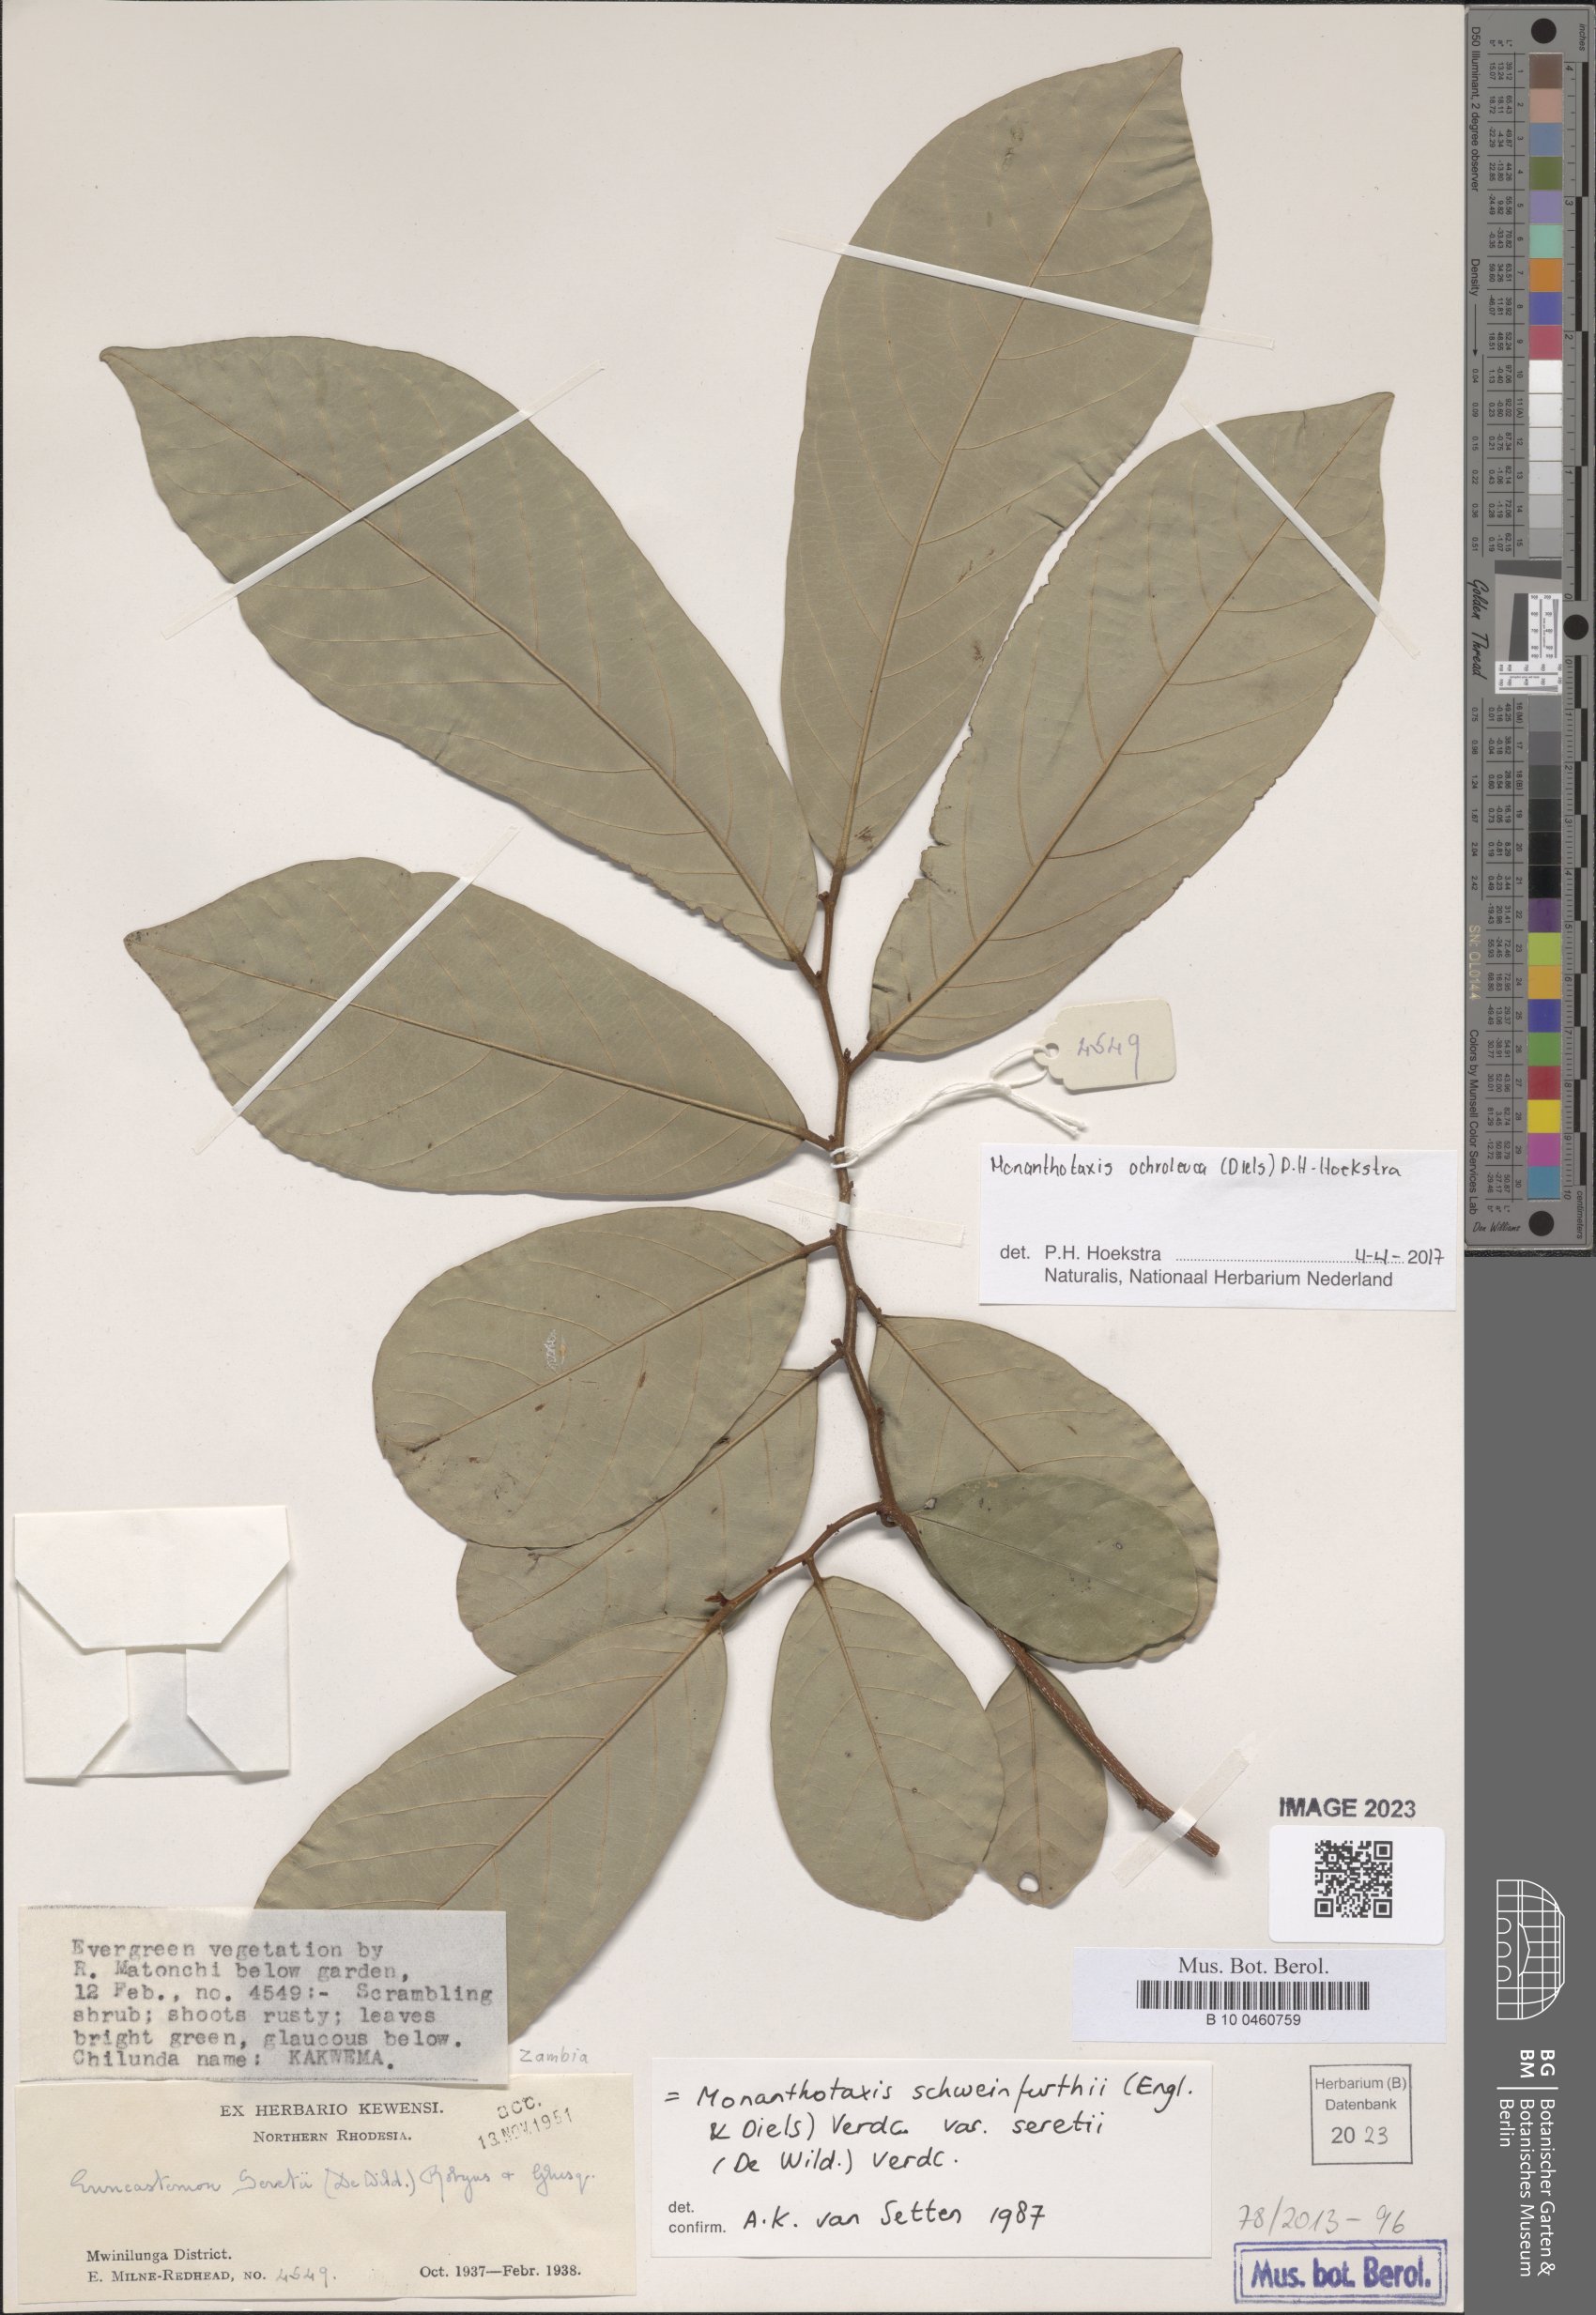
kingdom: Plantae
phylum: Tracheophyta
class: Magnoliopsida
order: Magnoliales
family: Annonaceae
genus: Monanthotaxis
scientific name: Monanthotaxis
